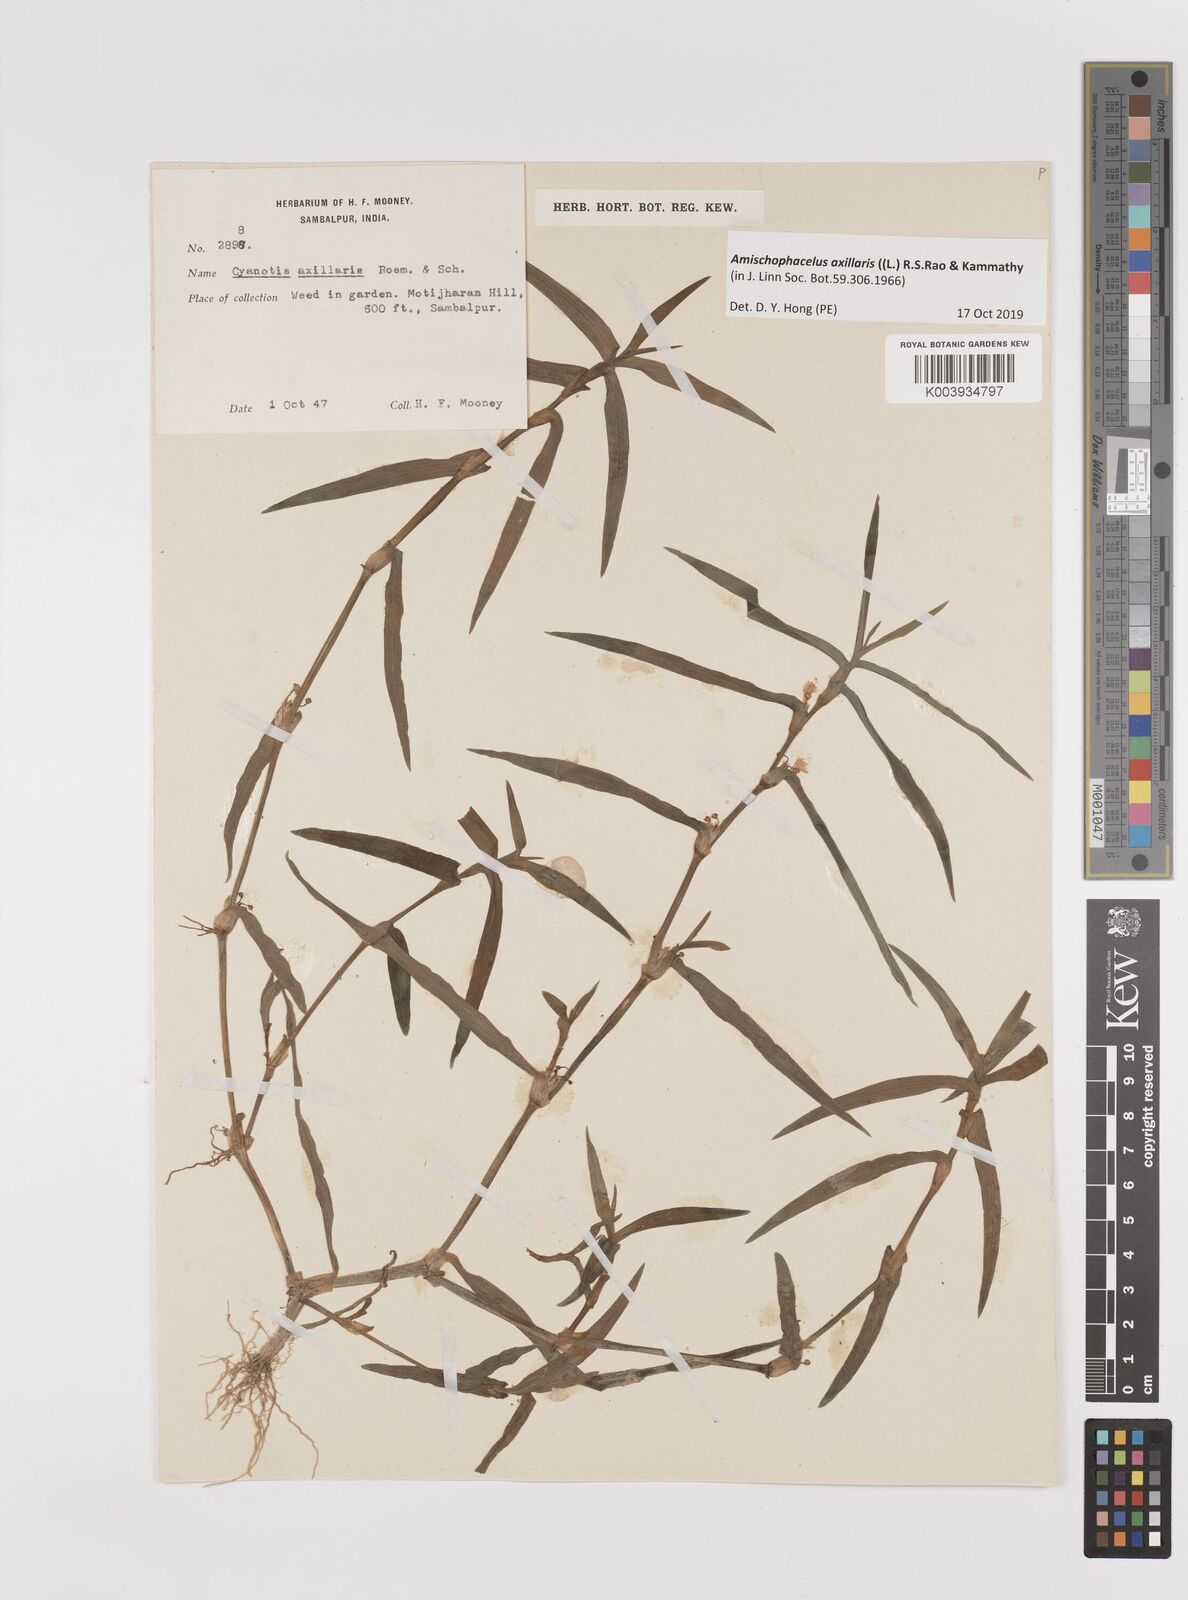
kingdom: Plantae
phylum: Tracheophyta
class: Liliopsida
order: Commelinales
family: Commelinaceae
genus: Cyanotis
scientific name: Cyanotis axillaris
